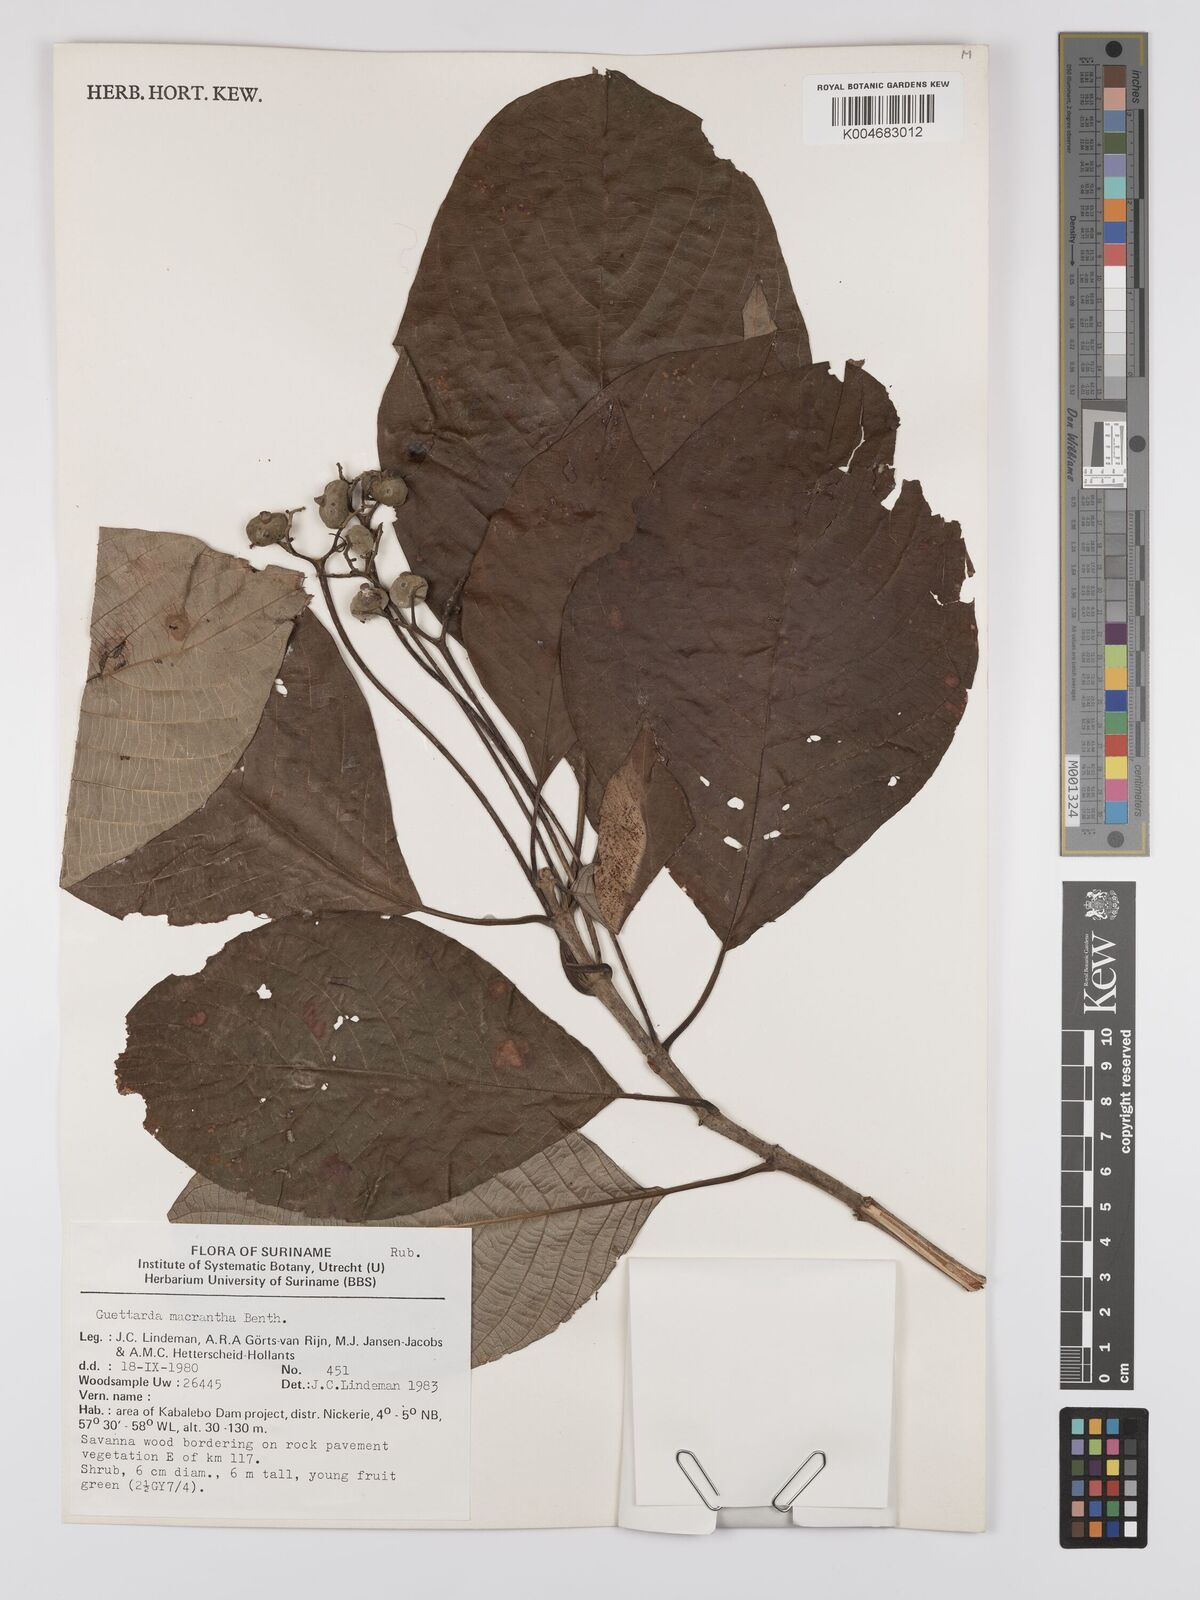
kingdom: Plantae
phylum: Tracheophyta
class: Magnoliopsida
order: Gentianales
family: Rubiaceae
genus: Guettarda
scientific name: Guettarda macrantha
